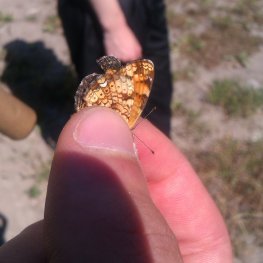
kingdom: Animalia
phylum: Arthropoda
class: Insecta
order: Lepidoptera
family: Nymphalidae
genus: Phyciodes
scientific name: Phyciodes tharos
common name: Pearl Crescent
